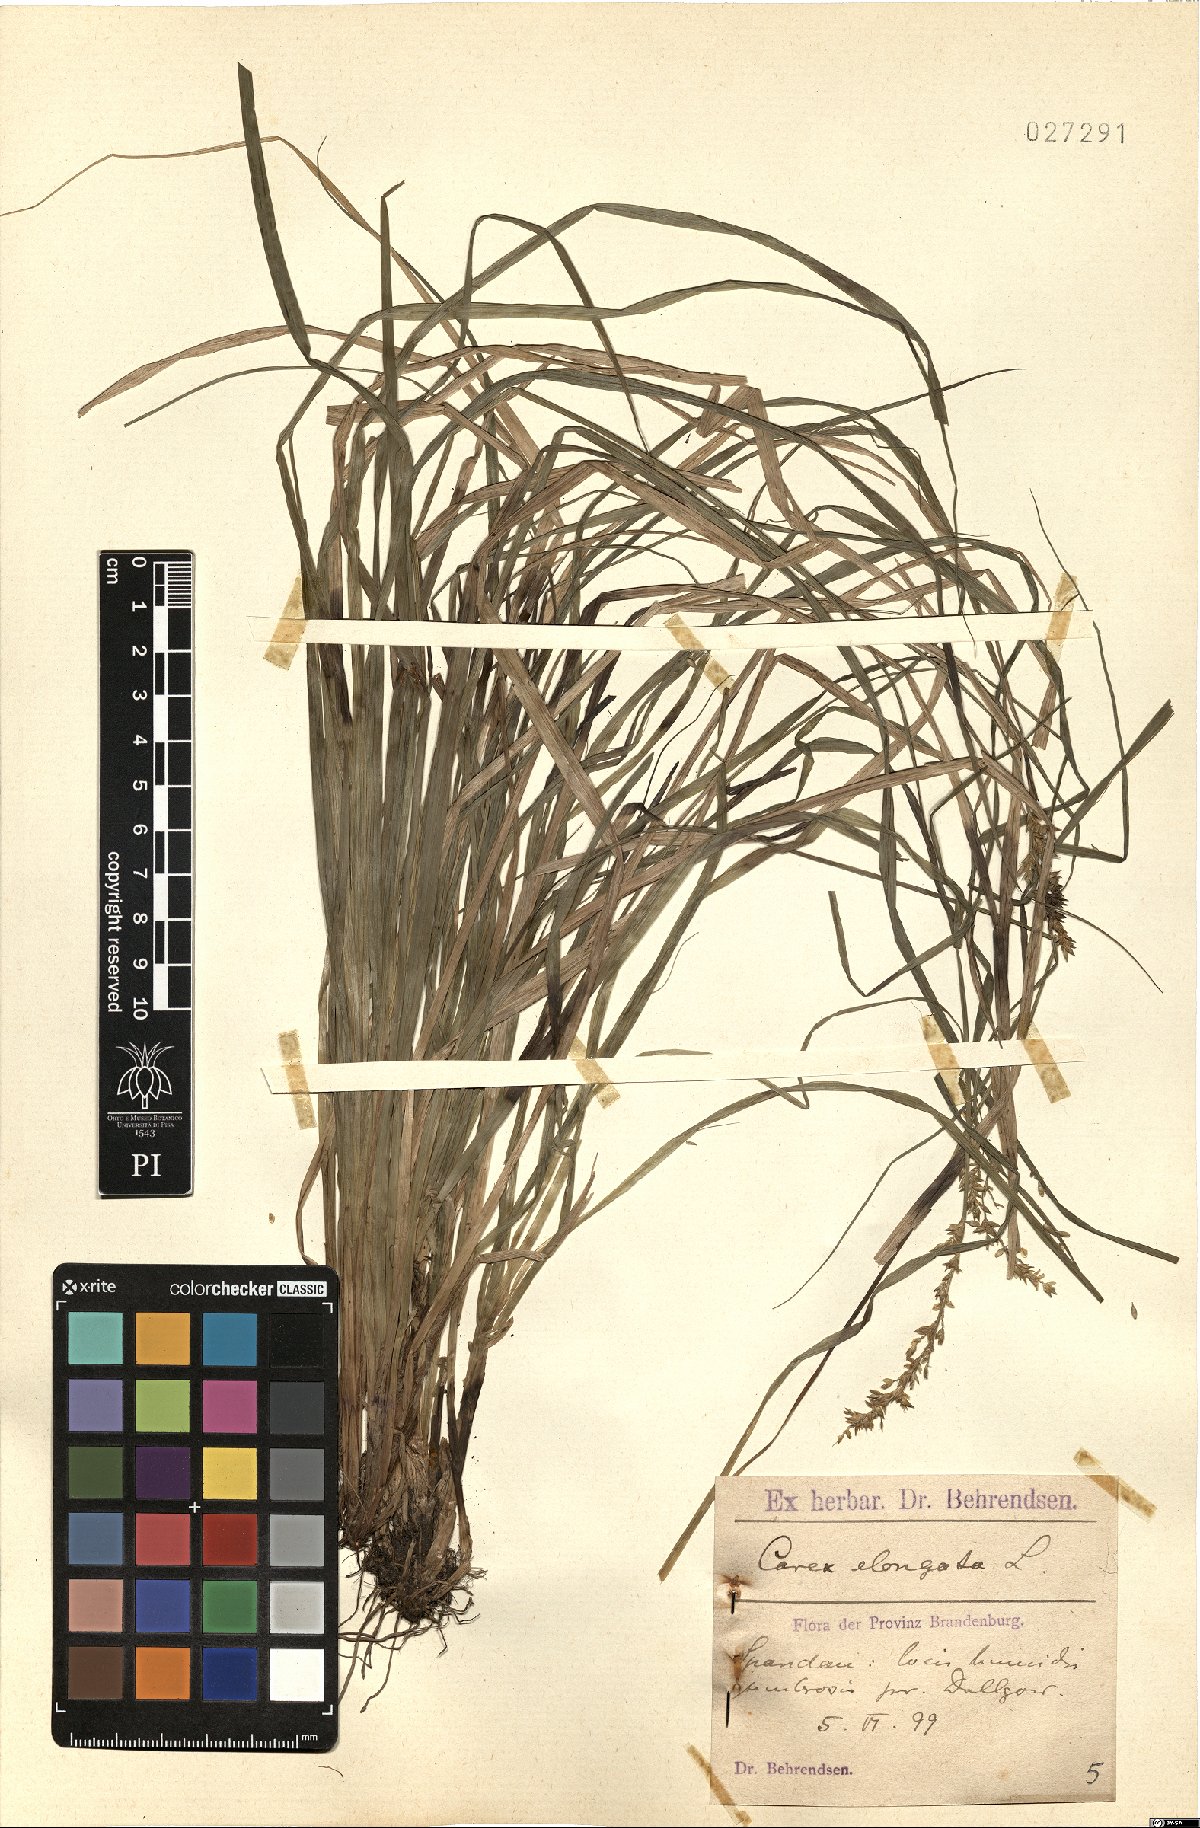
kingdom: Plantae
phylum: Tracheophyta
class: Liliopsida
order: Poales
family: Cyperaceae
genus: Carex
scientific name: Carex elongata
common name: Elongated sedge
